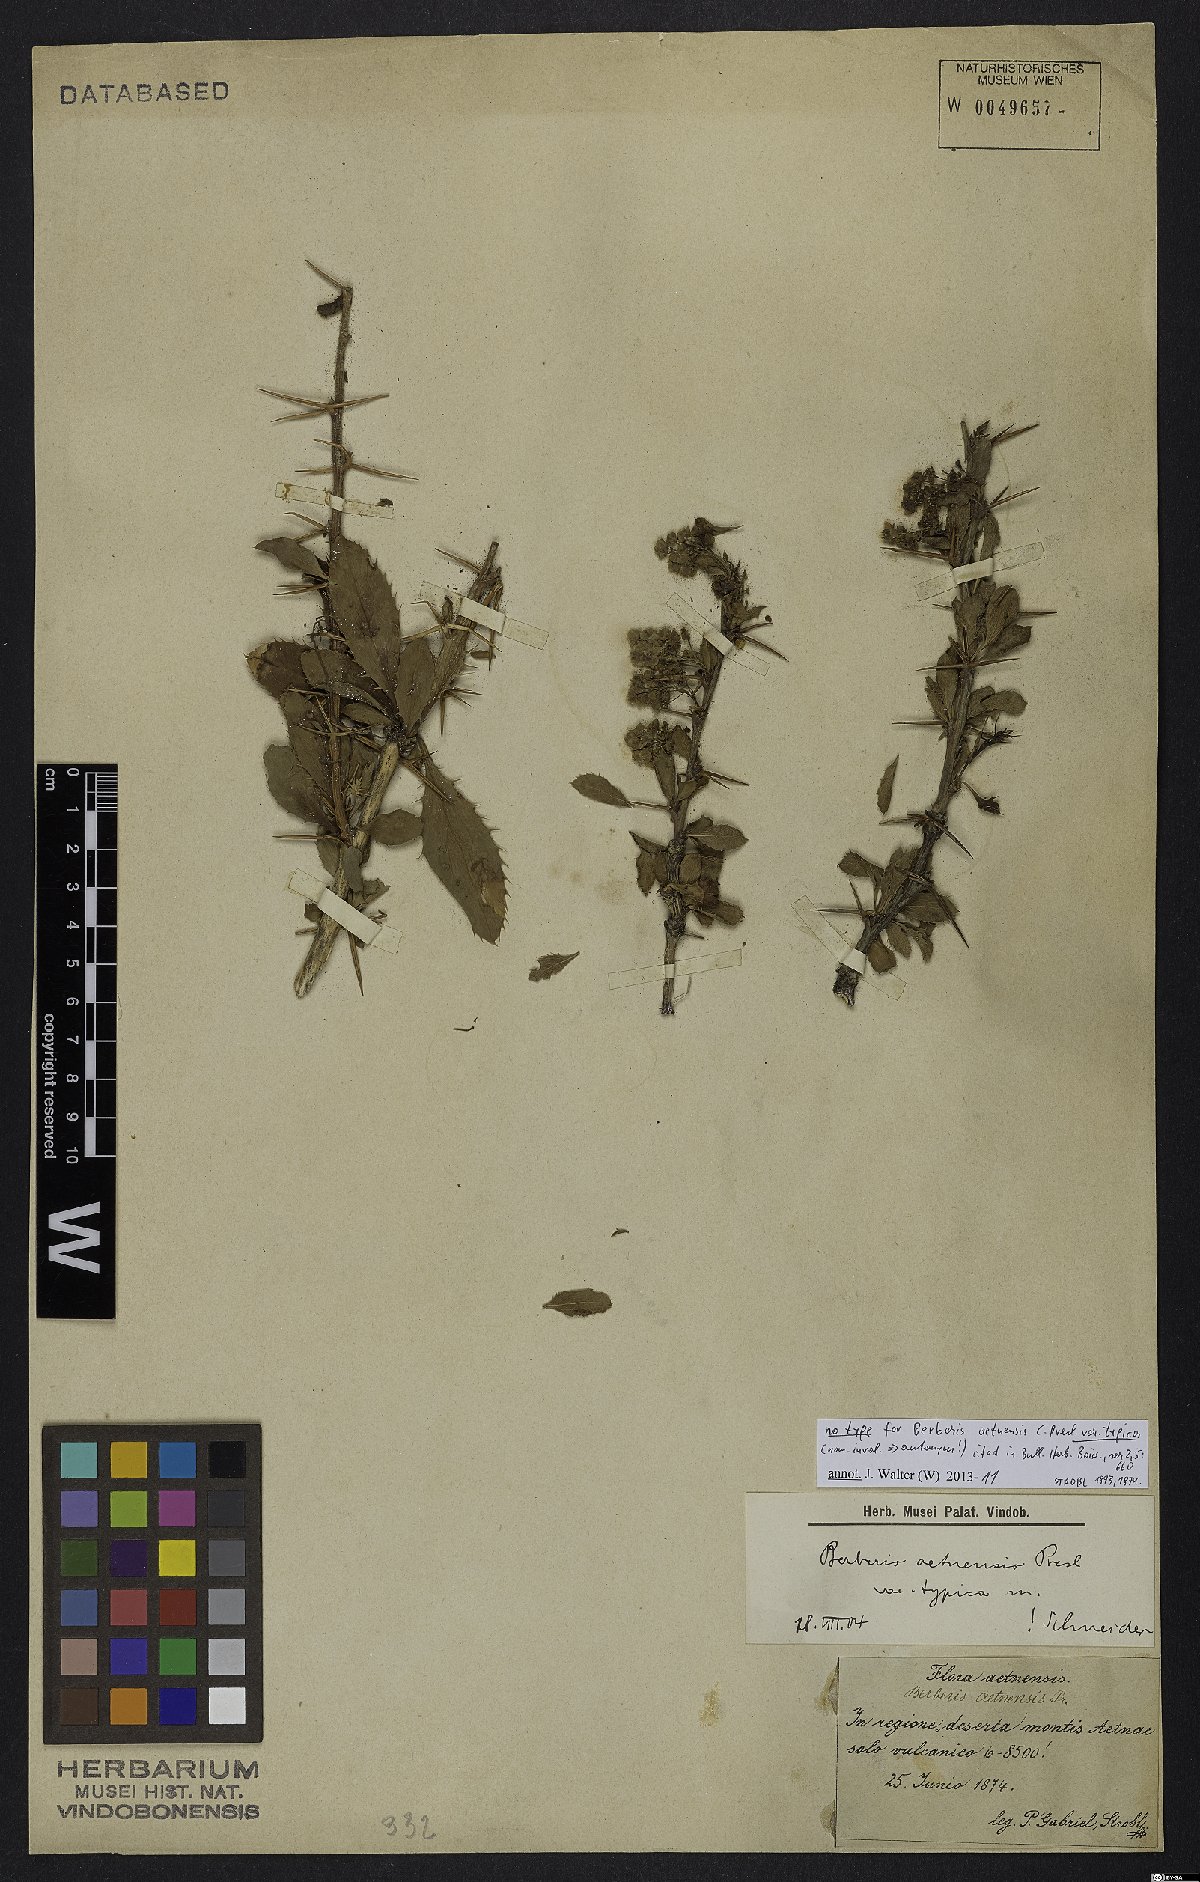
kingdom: Plantae
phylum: Tracheophyta
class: Magnoliopsida
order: Ranunculales
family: Berberidaceae
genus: Berberis
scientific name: Berberis aetnensis
